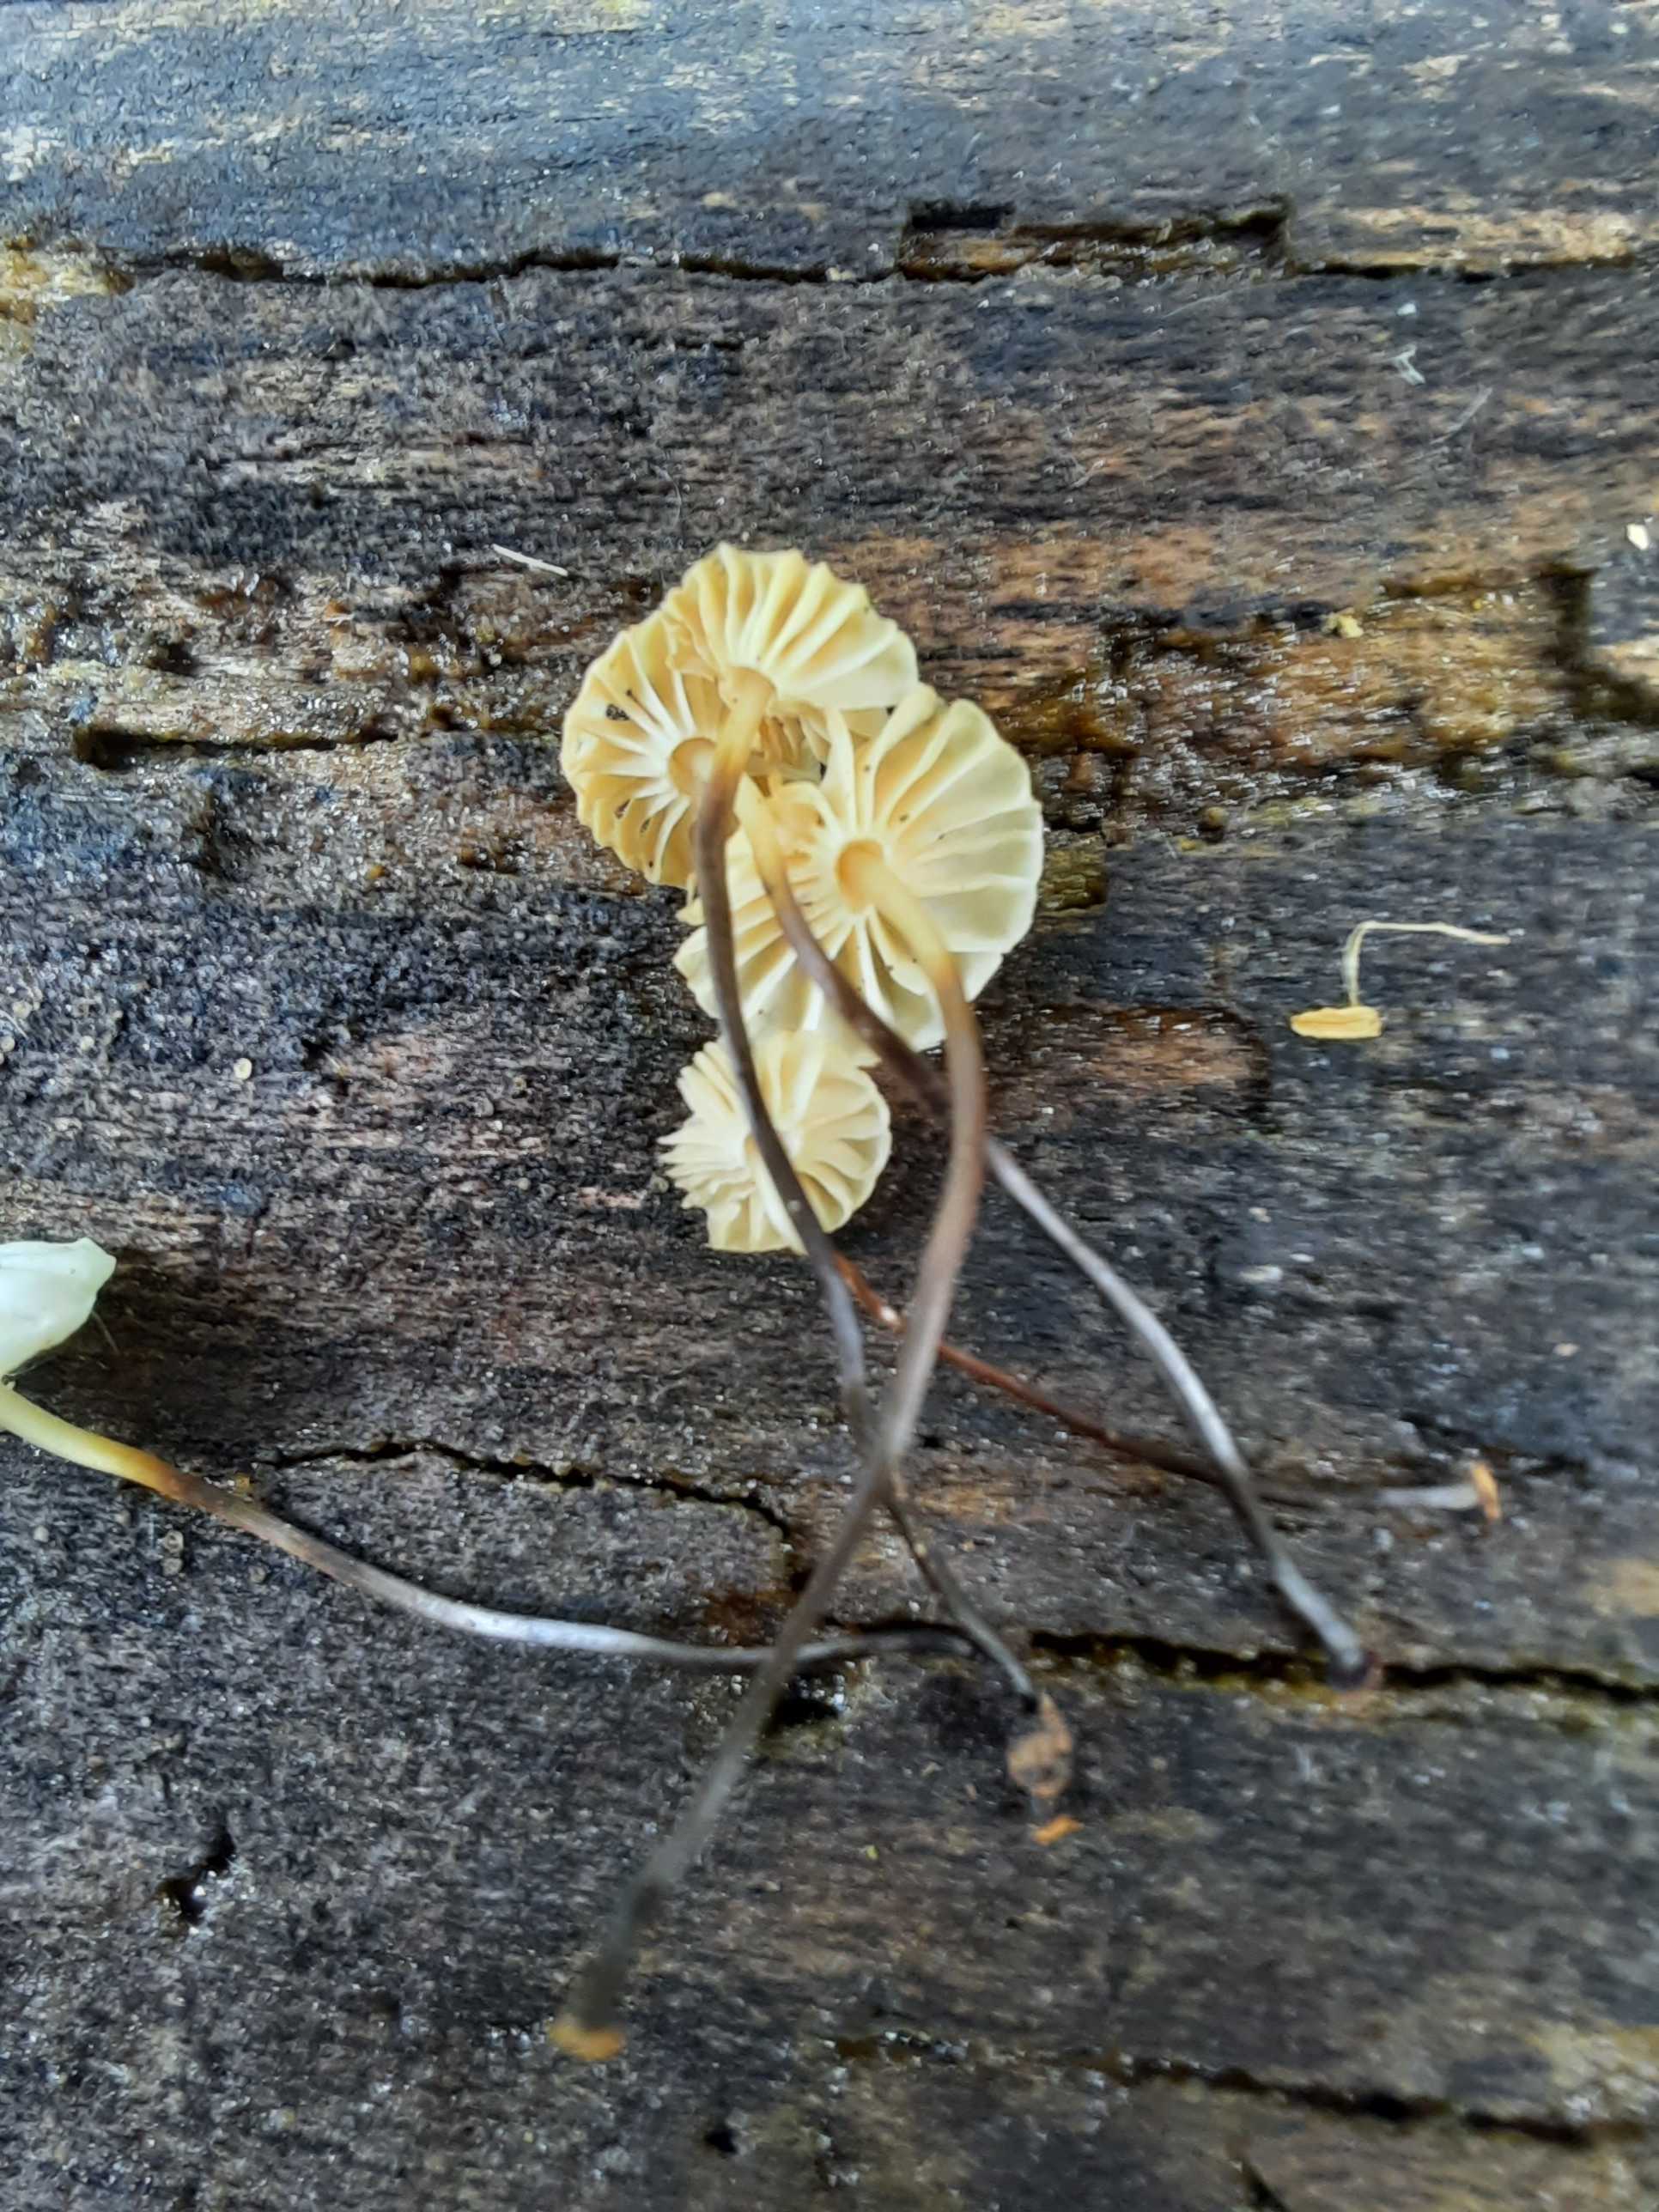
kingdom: Fungi
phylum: Basidiomycota
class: Agaricomycetes
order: Agaricales
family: Marasmiaceae
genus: Marasmius
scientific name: Marasmius rotula
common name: hjul-bruskhat
